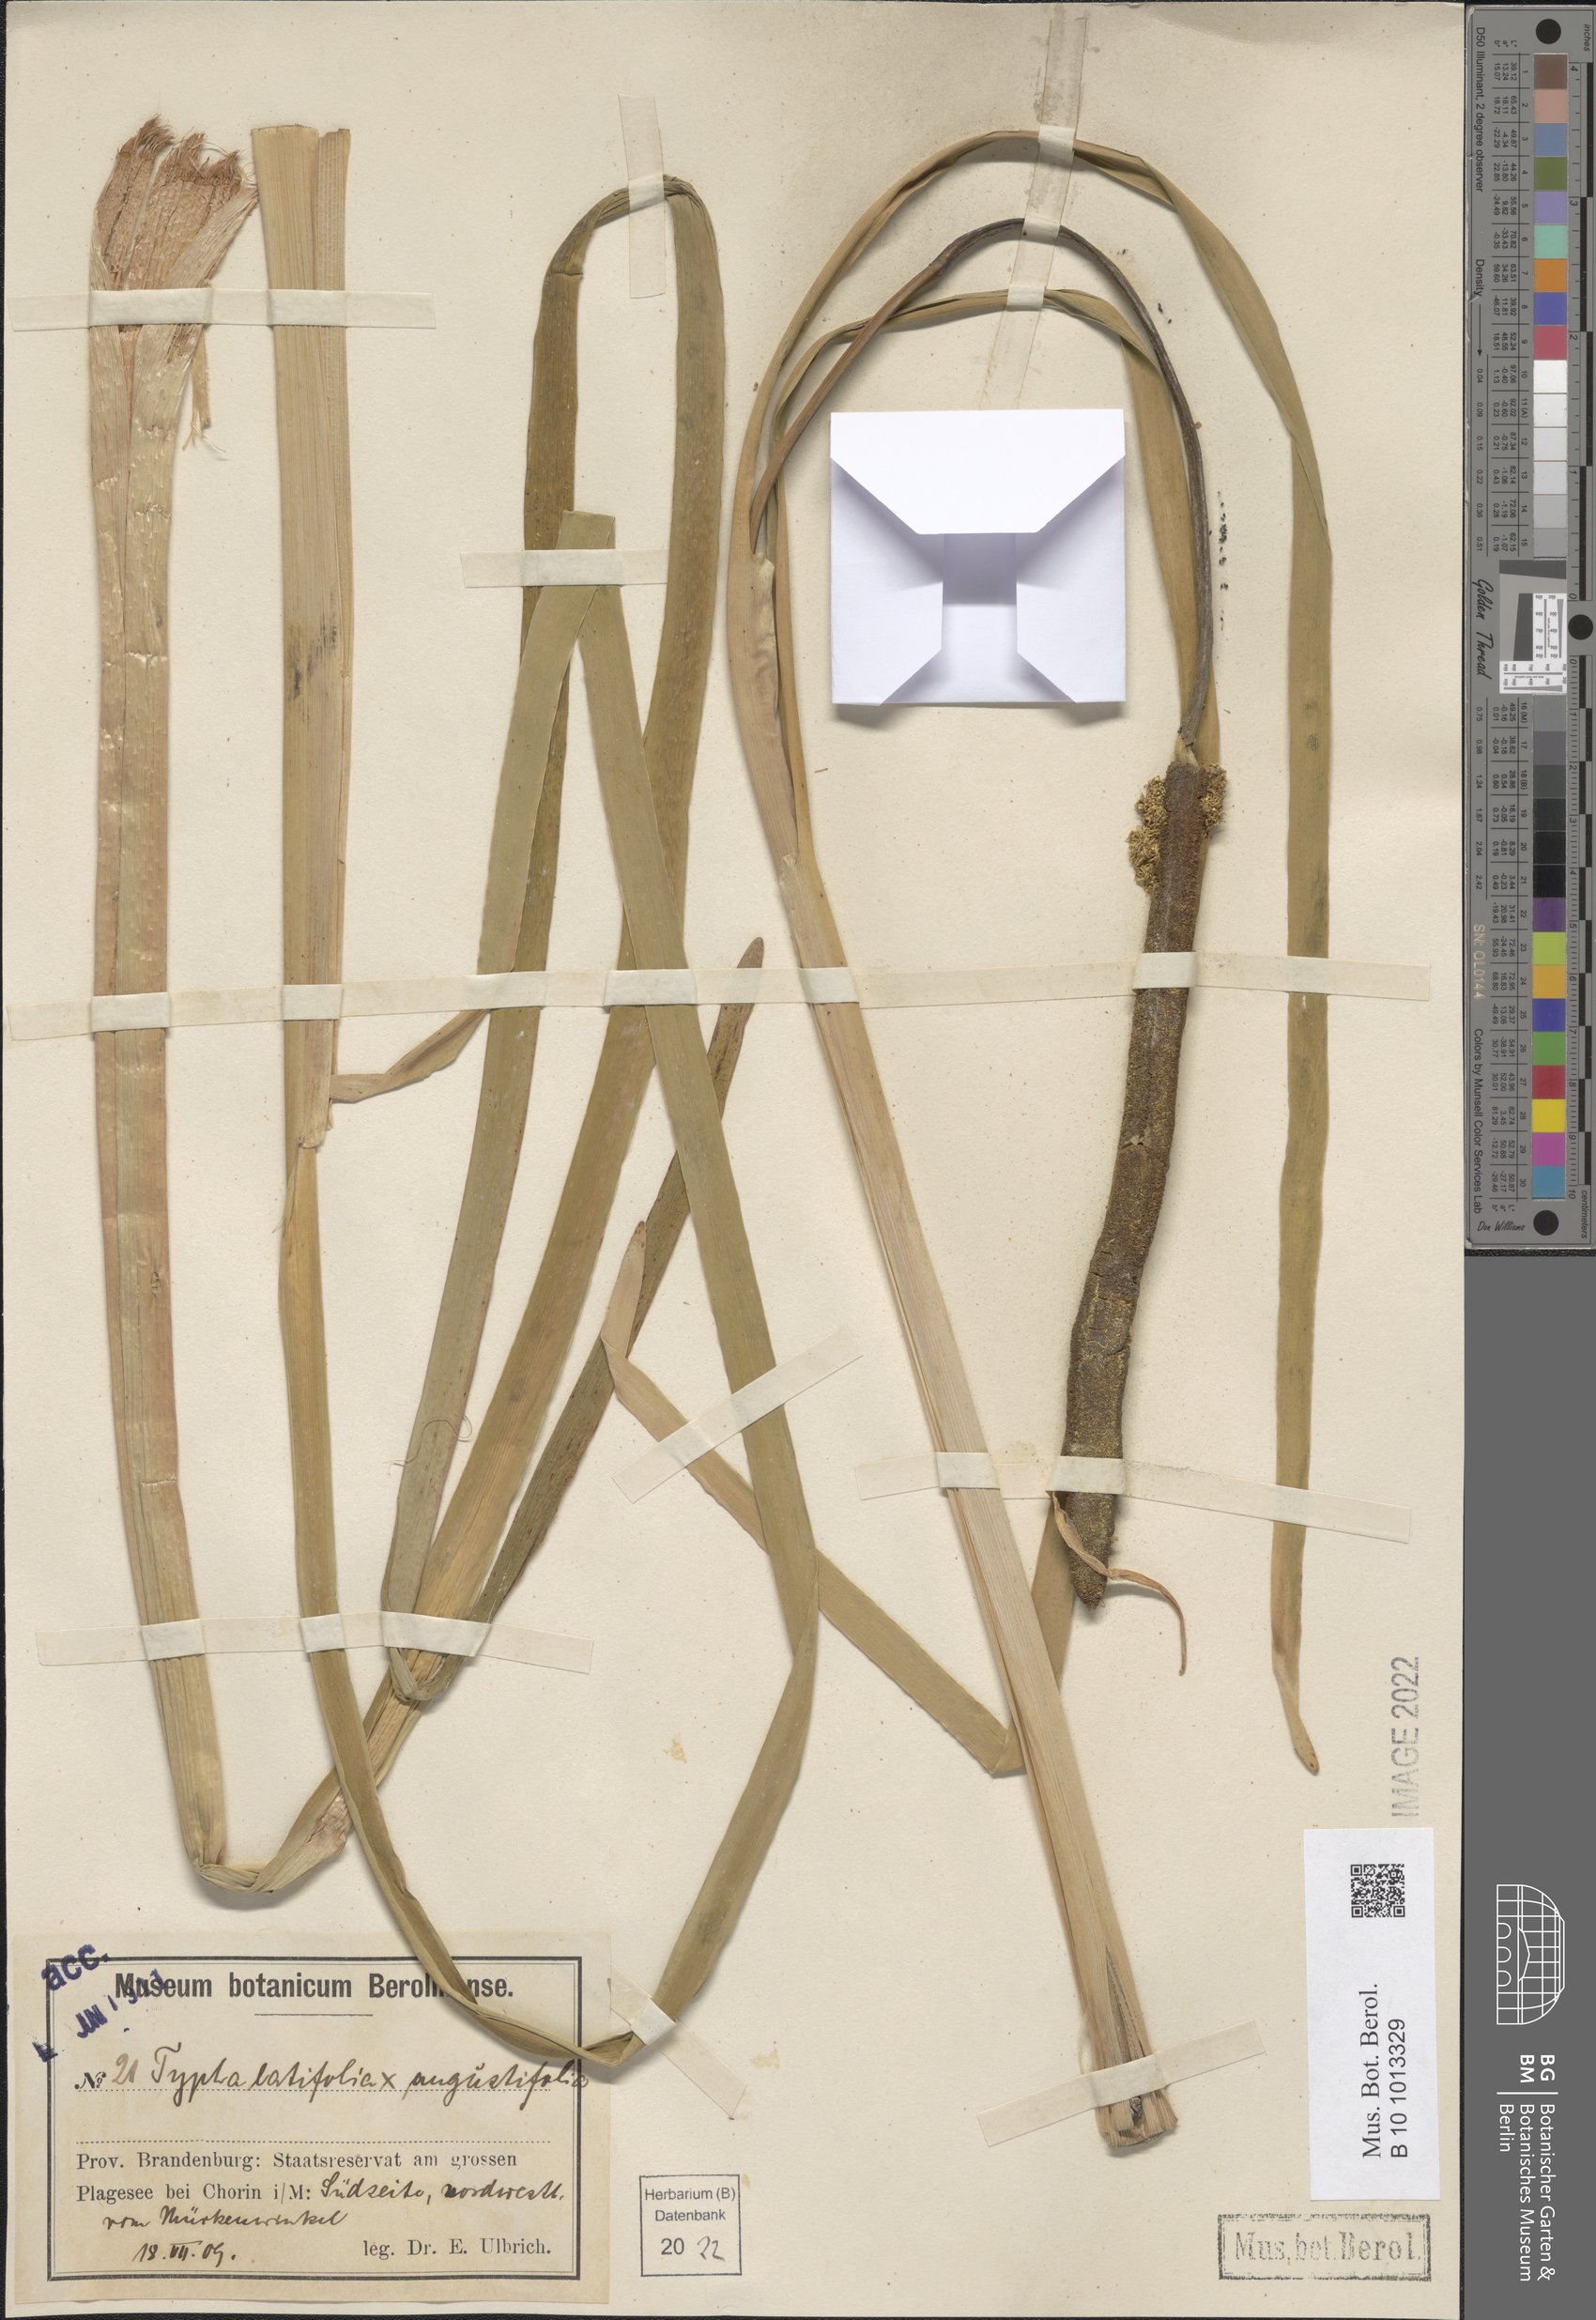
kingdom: Plantae
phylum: Tracheophyta
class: Liliopsida
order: Poales
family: Typhaceae
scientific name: Typhaceae
